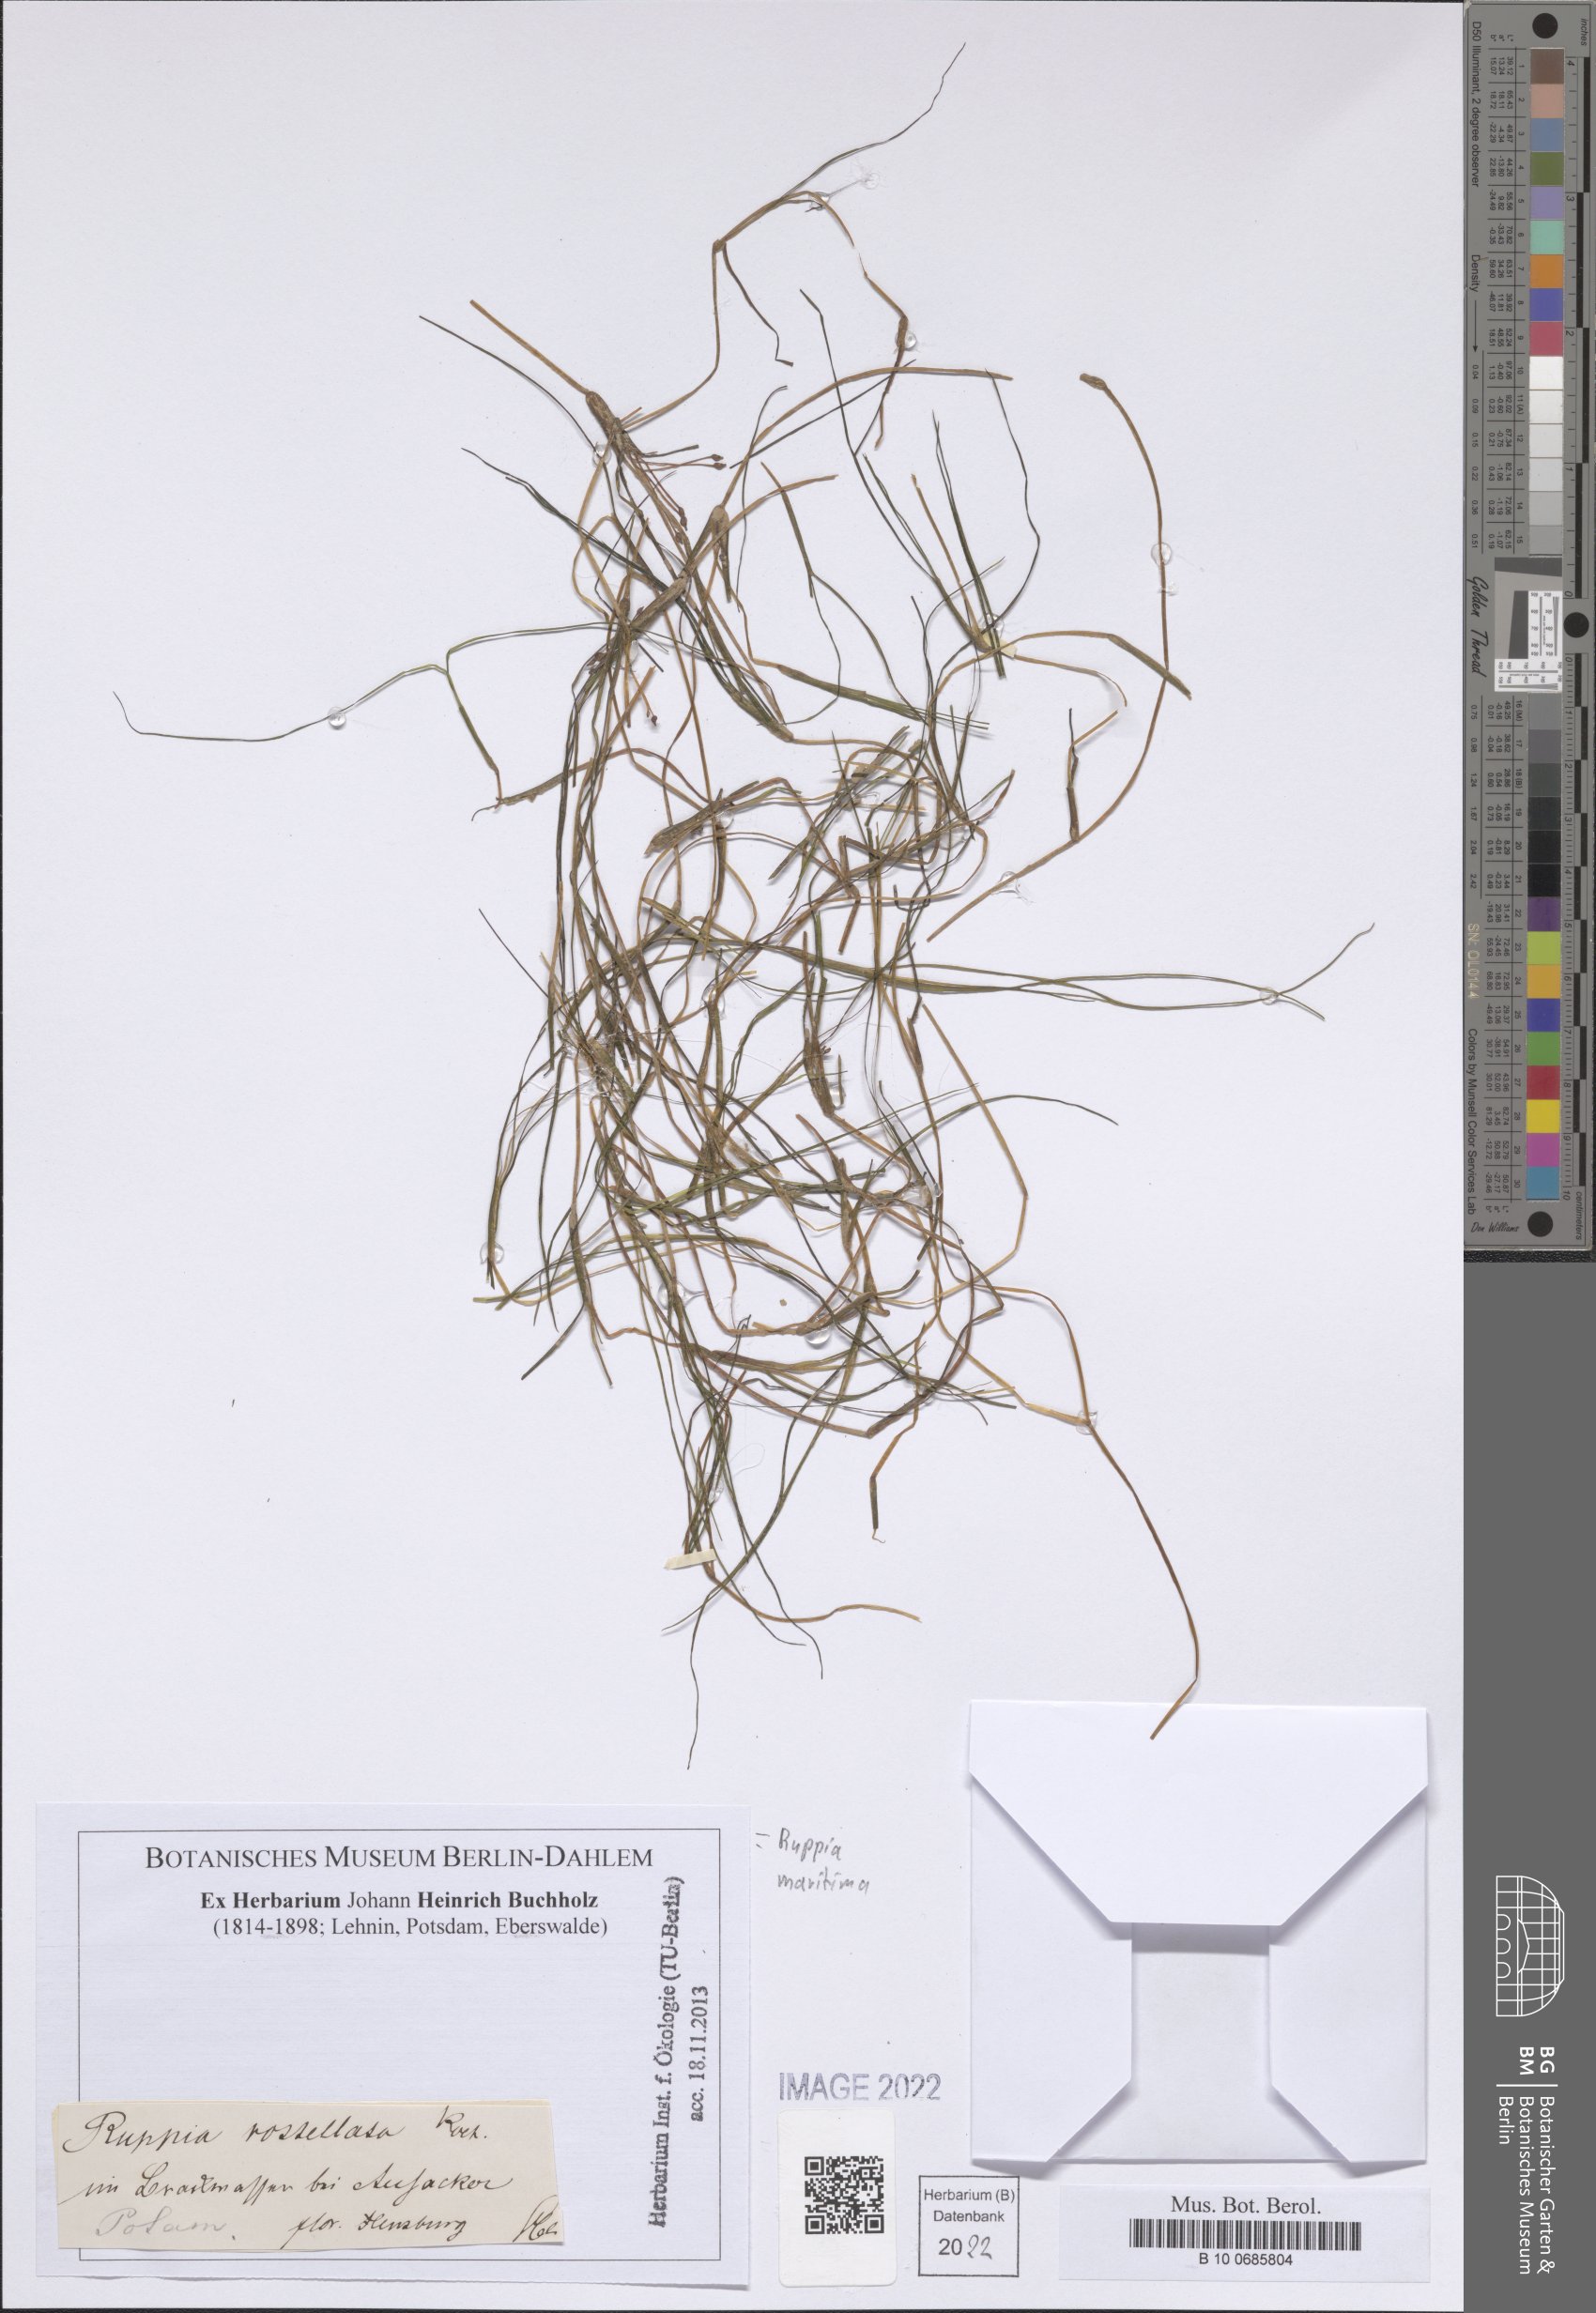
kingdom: Plantae
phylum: Tracheophyta
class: Liliopsida
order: Alismatales
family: Ruppiaceae
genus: Ruppia
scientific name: Ruppia maritima
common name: Beaked tasselweed
